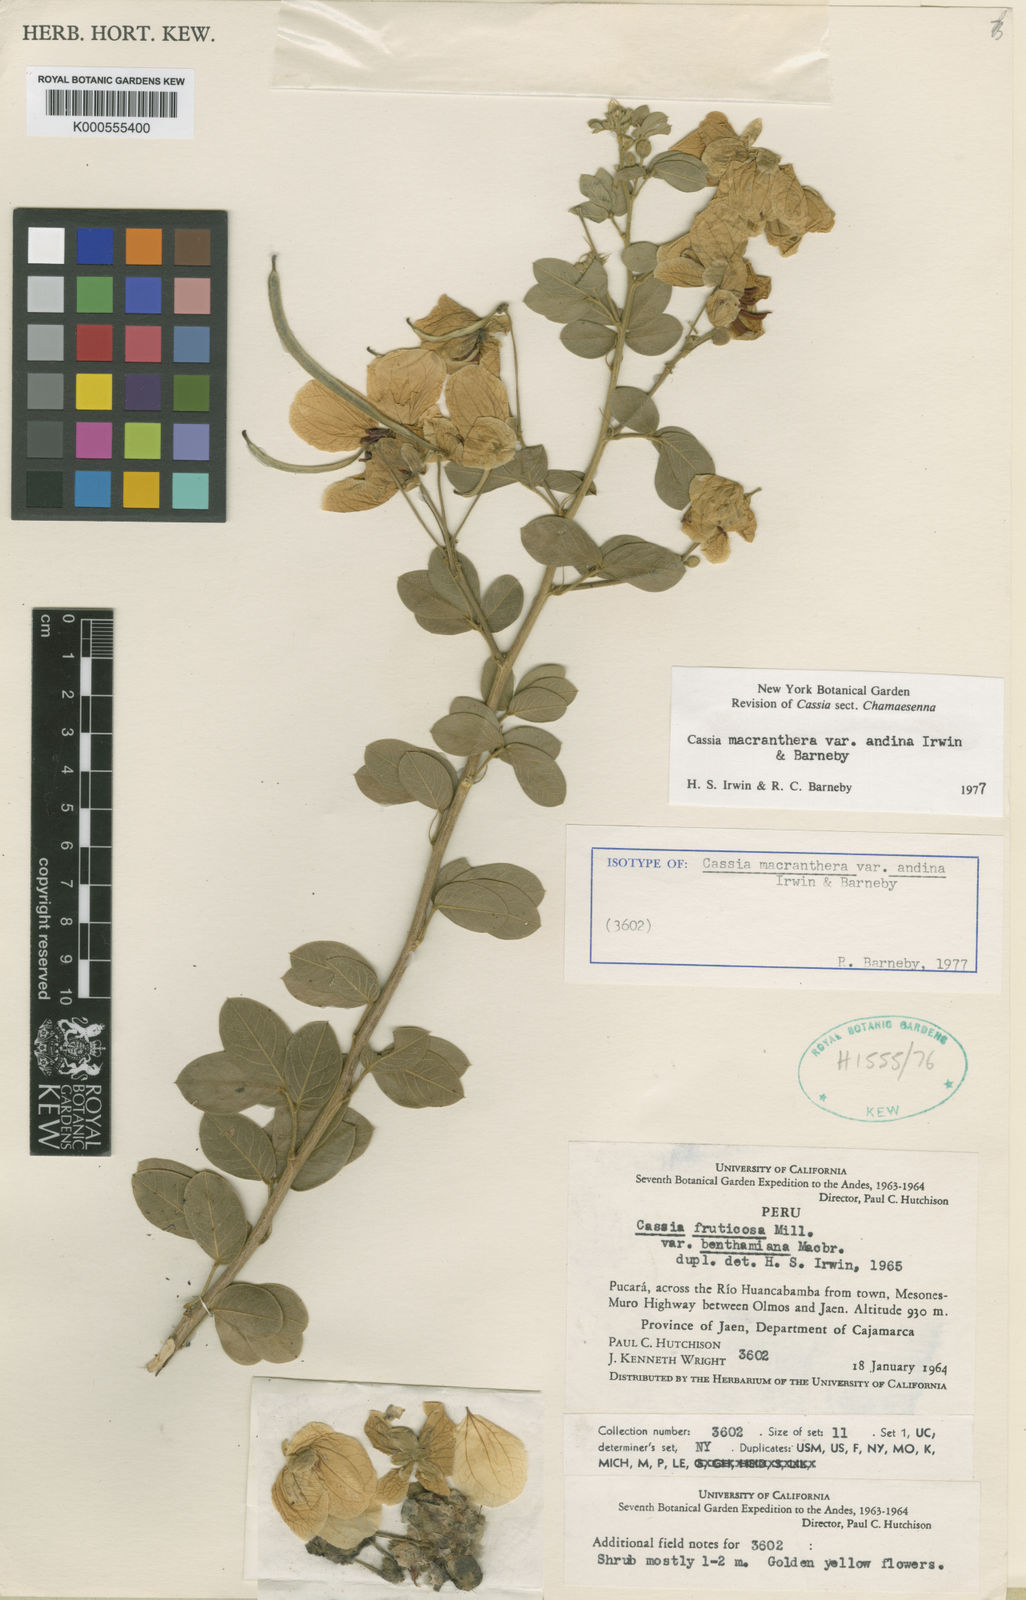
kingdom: Plantae
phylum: Tracheophyta
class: Magnoliopsida
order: Fabales
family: Fabaceae
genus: Senna
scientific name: Senna macranthera
